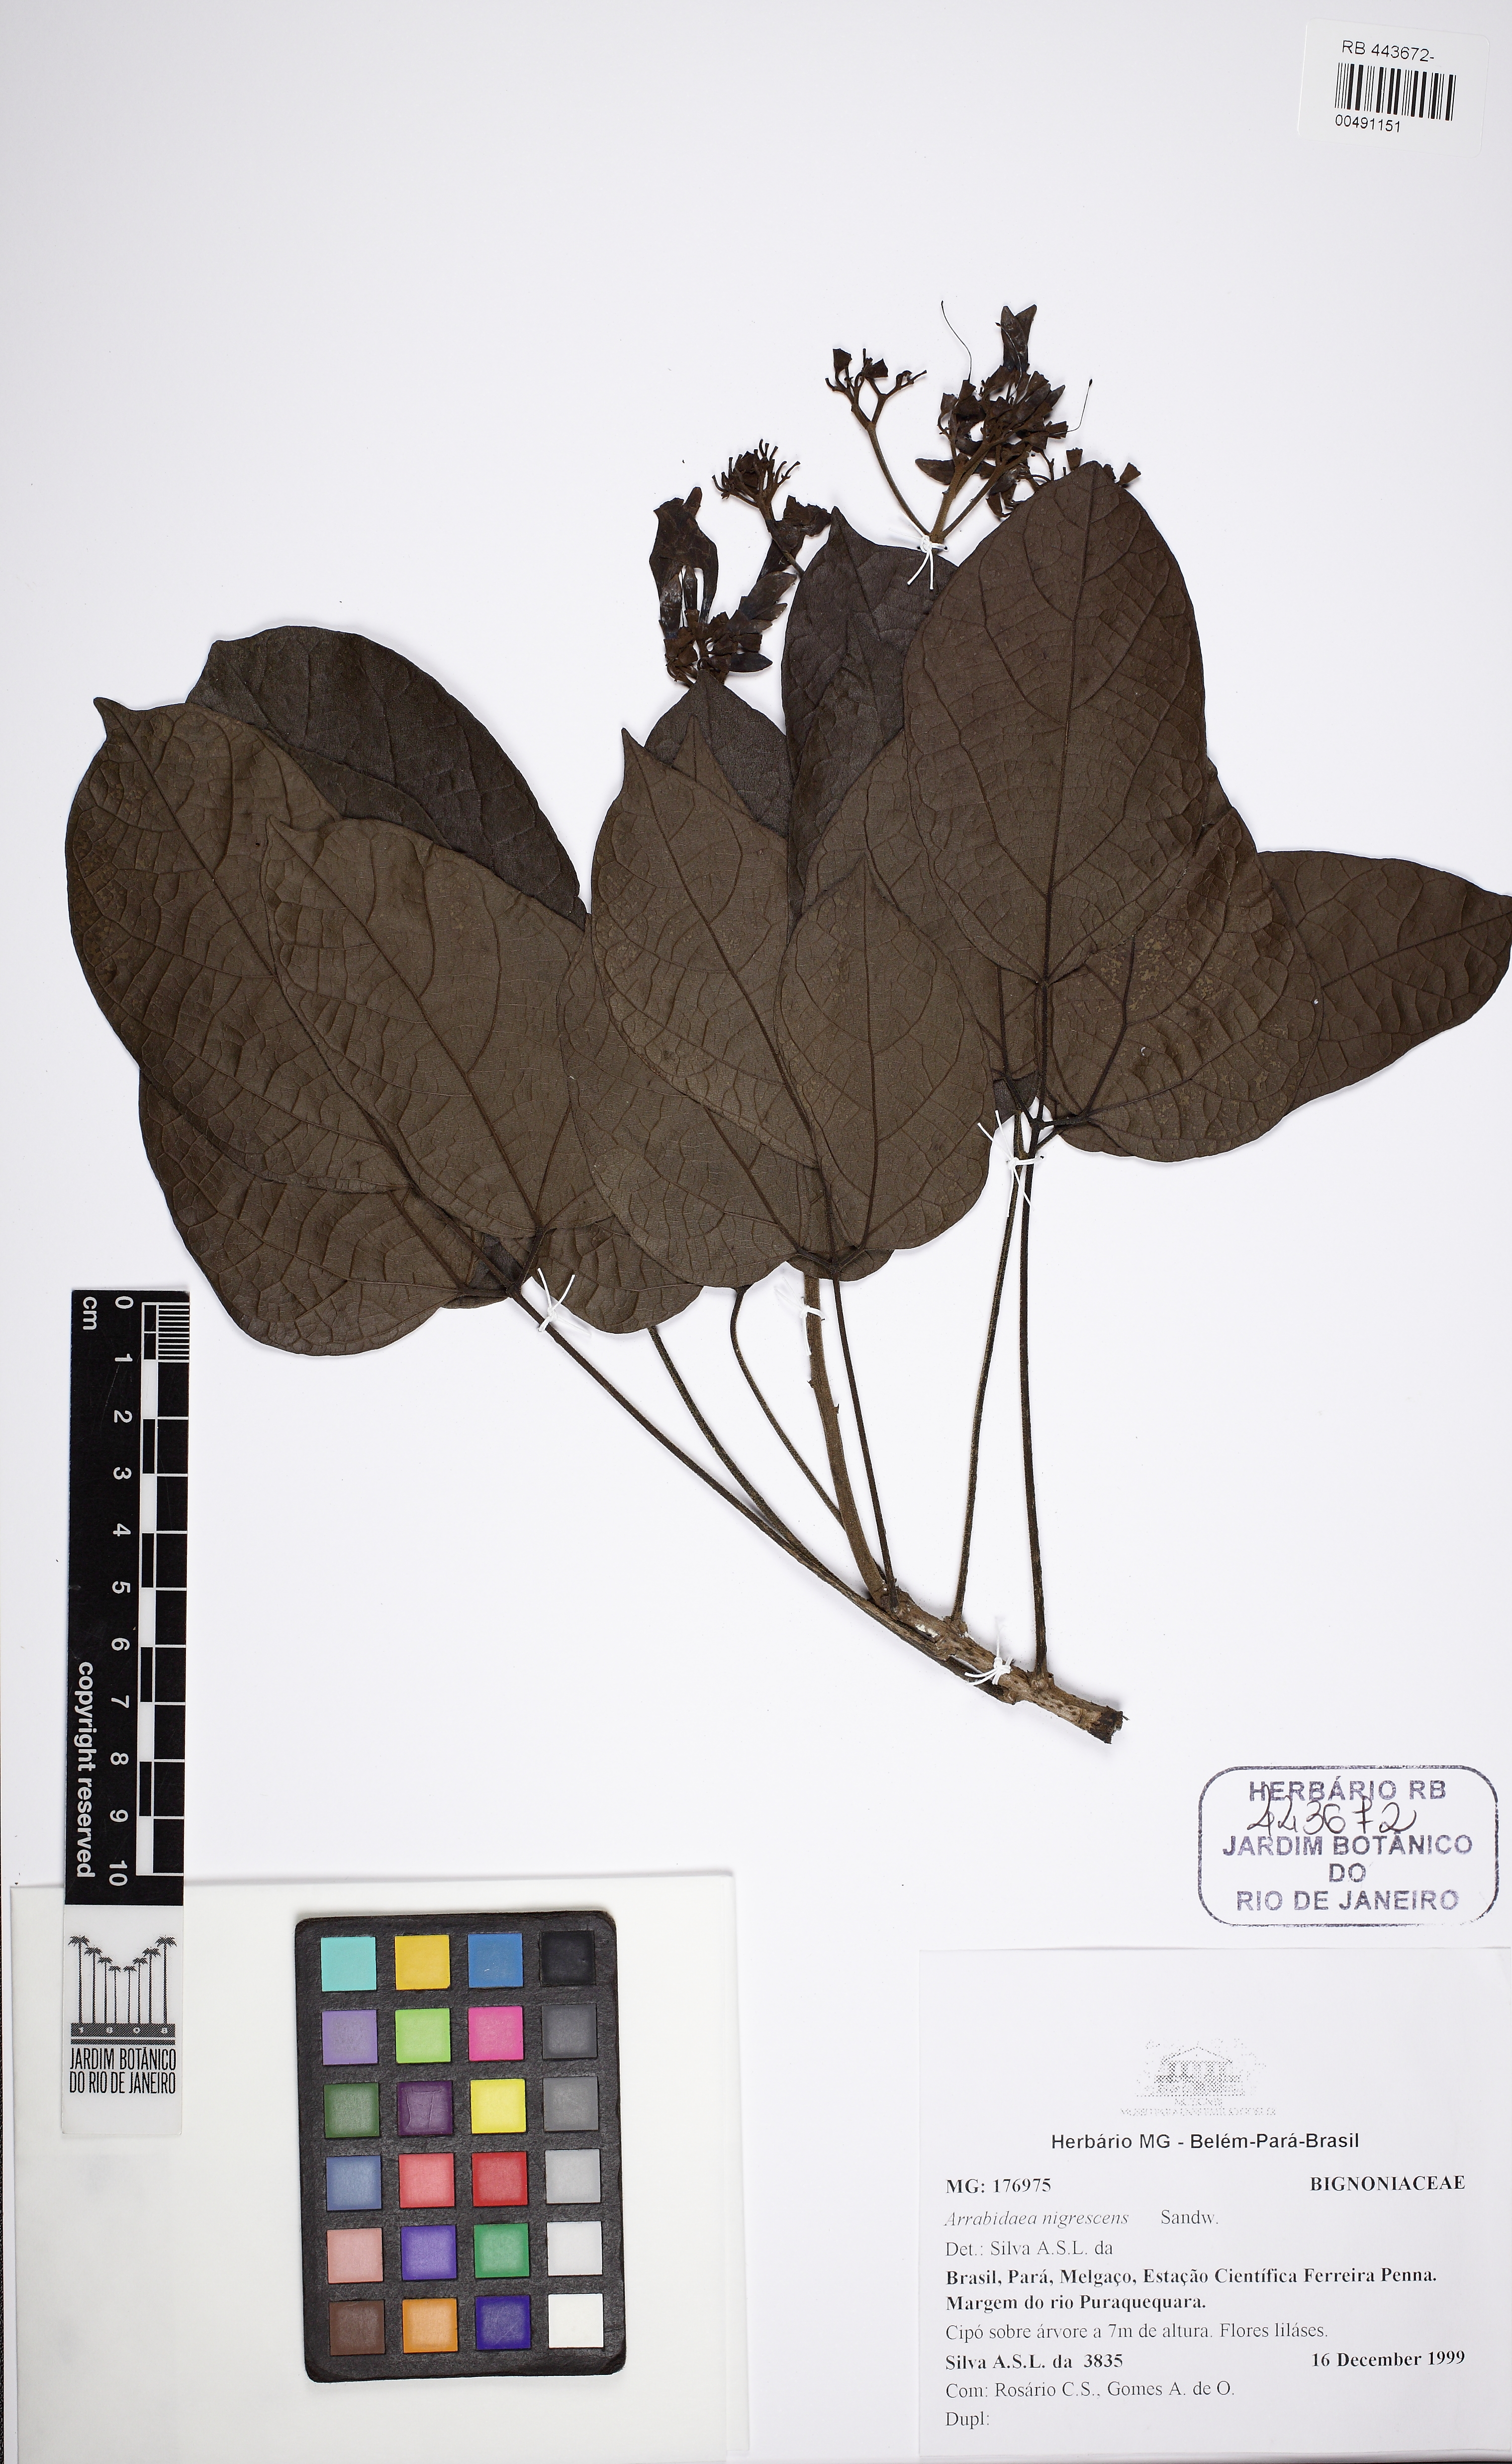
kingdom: Plantae
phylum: Tracheophyta
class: Magnoliopsida
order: Lamiales
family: Bignoniaceae
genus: Fridericia
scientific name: Fridericia nigrescens
